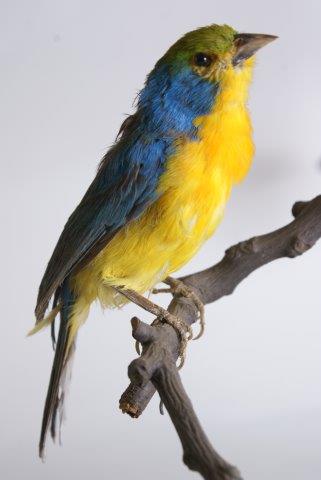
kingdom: Animalia
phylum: Chordata
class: Aves
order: Passeriformes
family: Cardinalidae
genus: Passerina
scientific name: Passerina leclancherii
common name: Orange-breasted bunting
